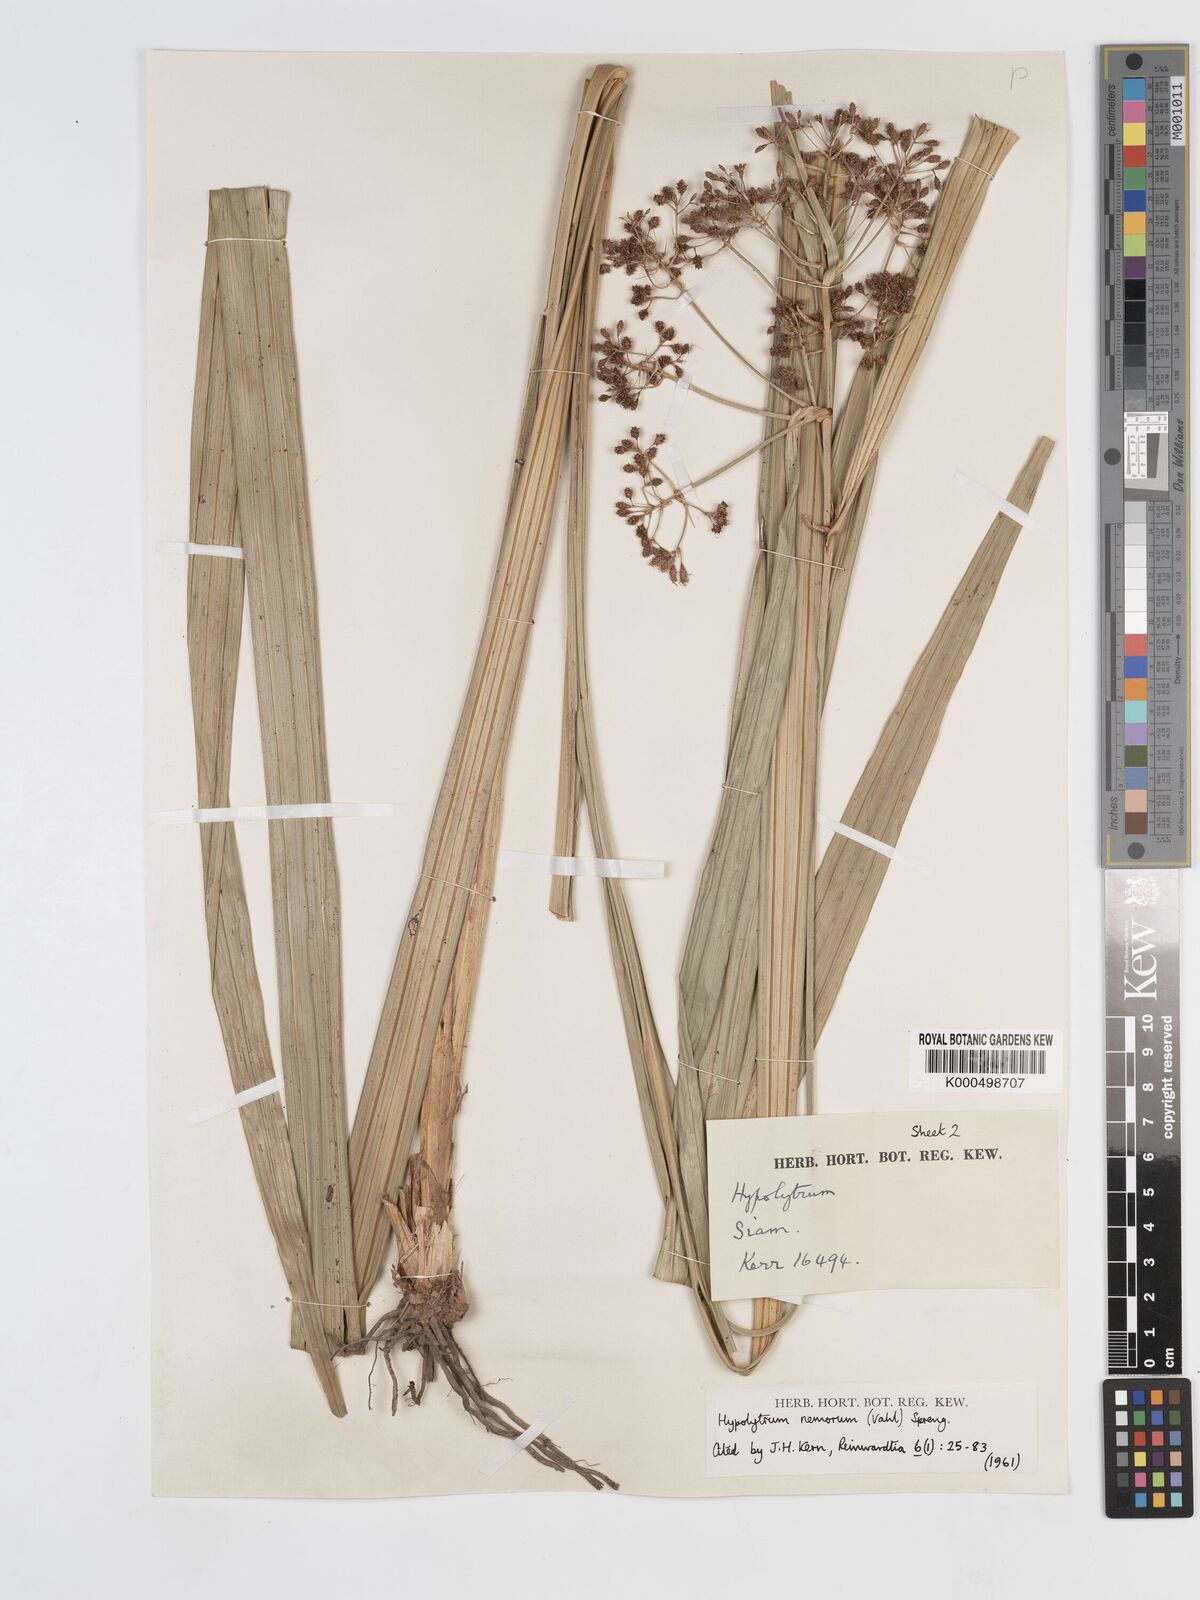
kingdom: Plantae
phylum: Tracheophyta
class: Liliopsida
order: Poales
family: Cyperaceae
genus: Hypolytrum
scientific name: Hypolytrum nemorum
